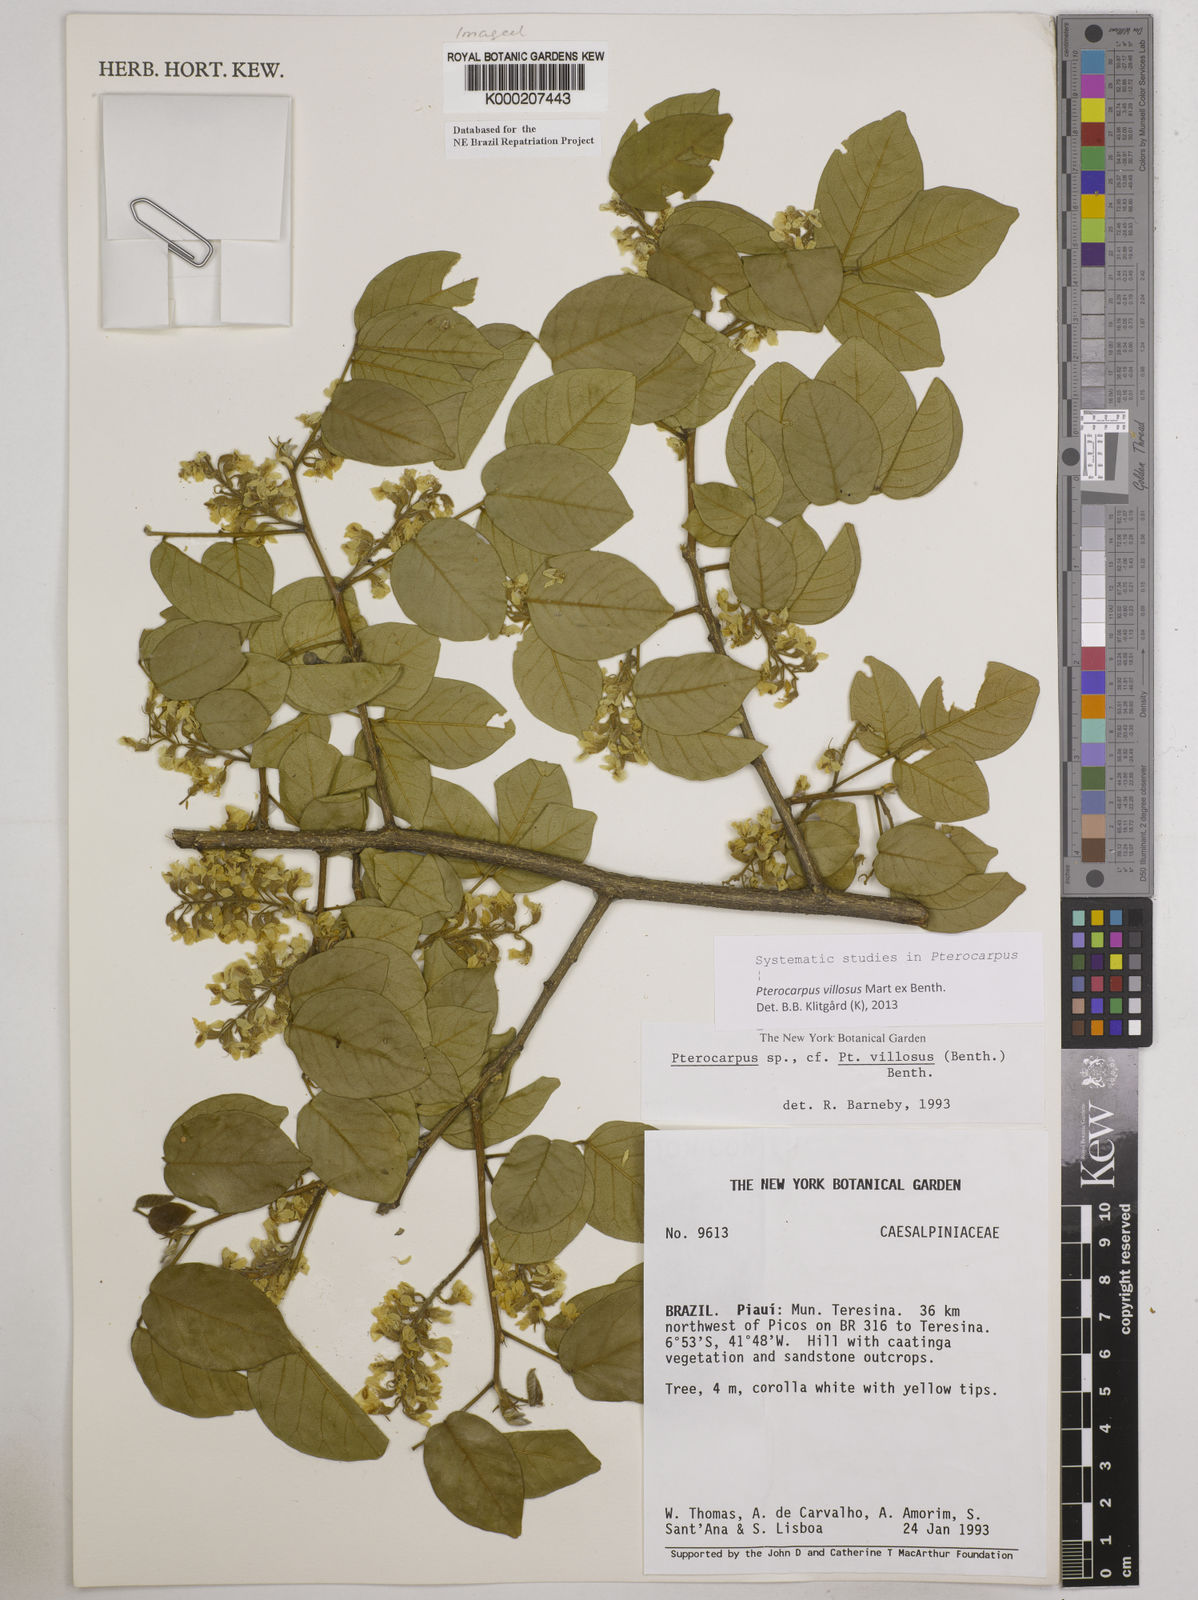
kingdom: Plantae
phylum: Tracheophyta
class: Magnoliopsida
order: Fabales
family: Fabaceae
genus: Pterocarpus
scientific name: Pterocarpus villosus
